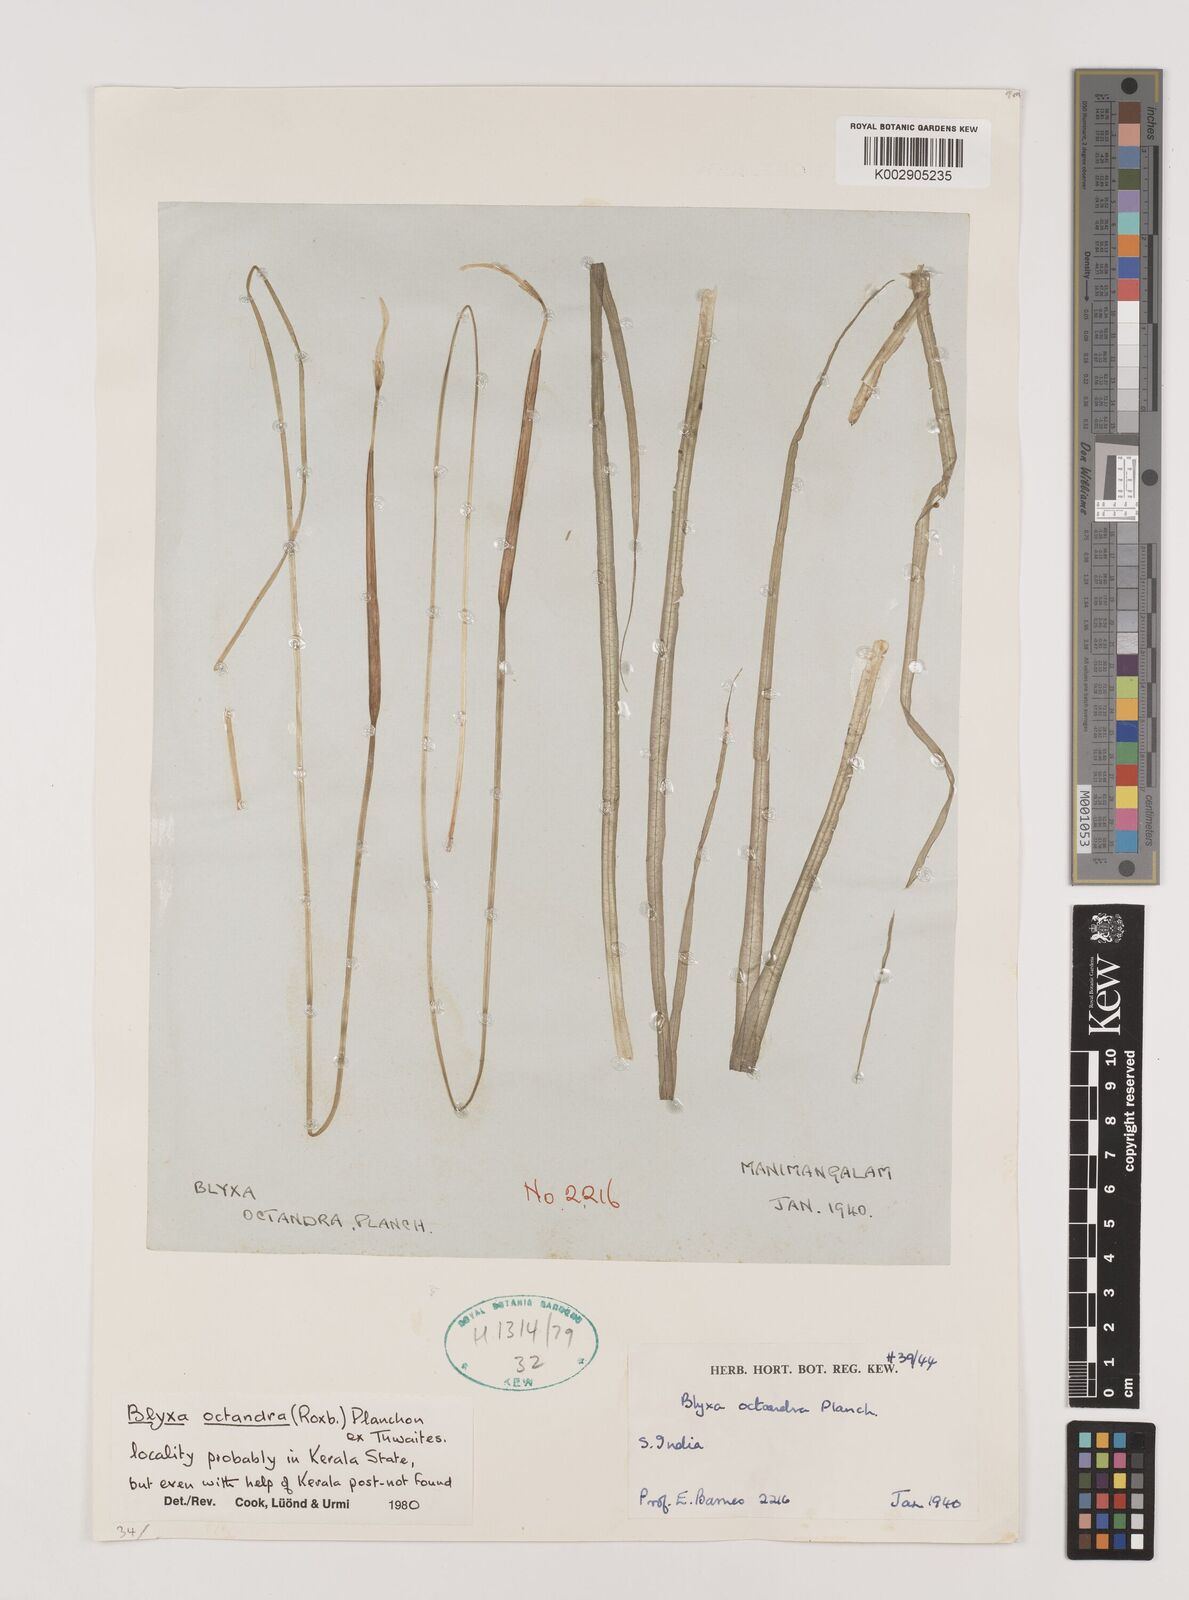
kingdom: Plantae
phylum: Tracheophyta
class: Liliopsida
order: Alismatales
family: Hydrocharitaceae
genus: Blyxa
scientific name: Blyxa octandra
